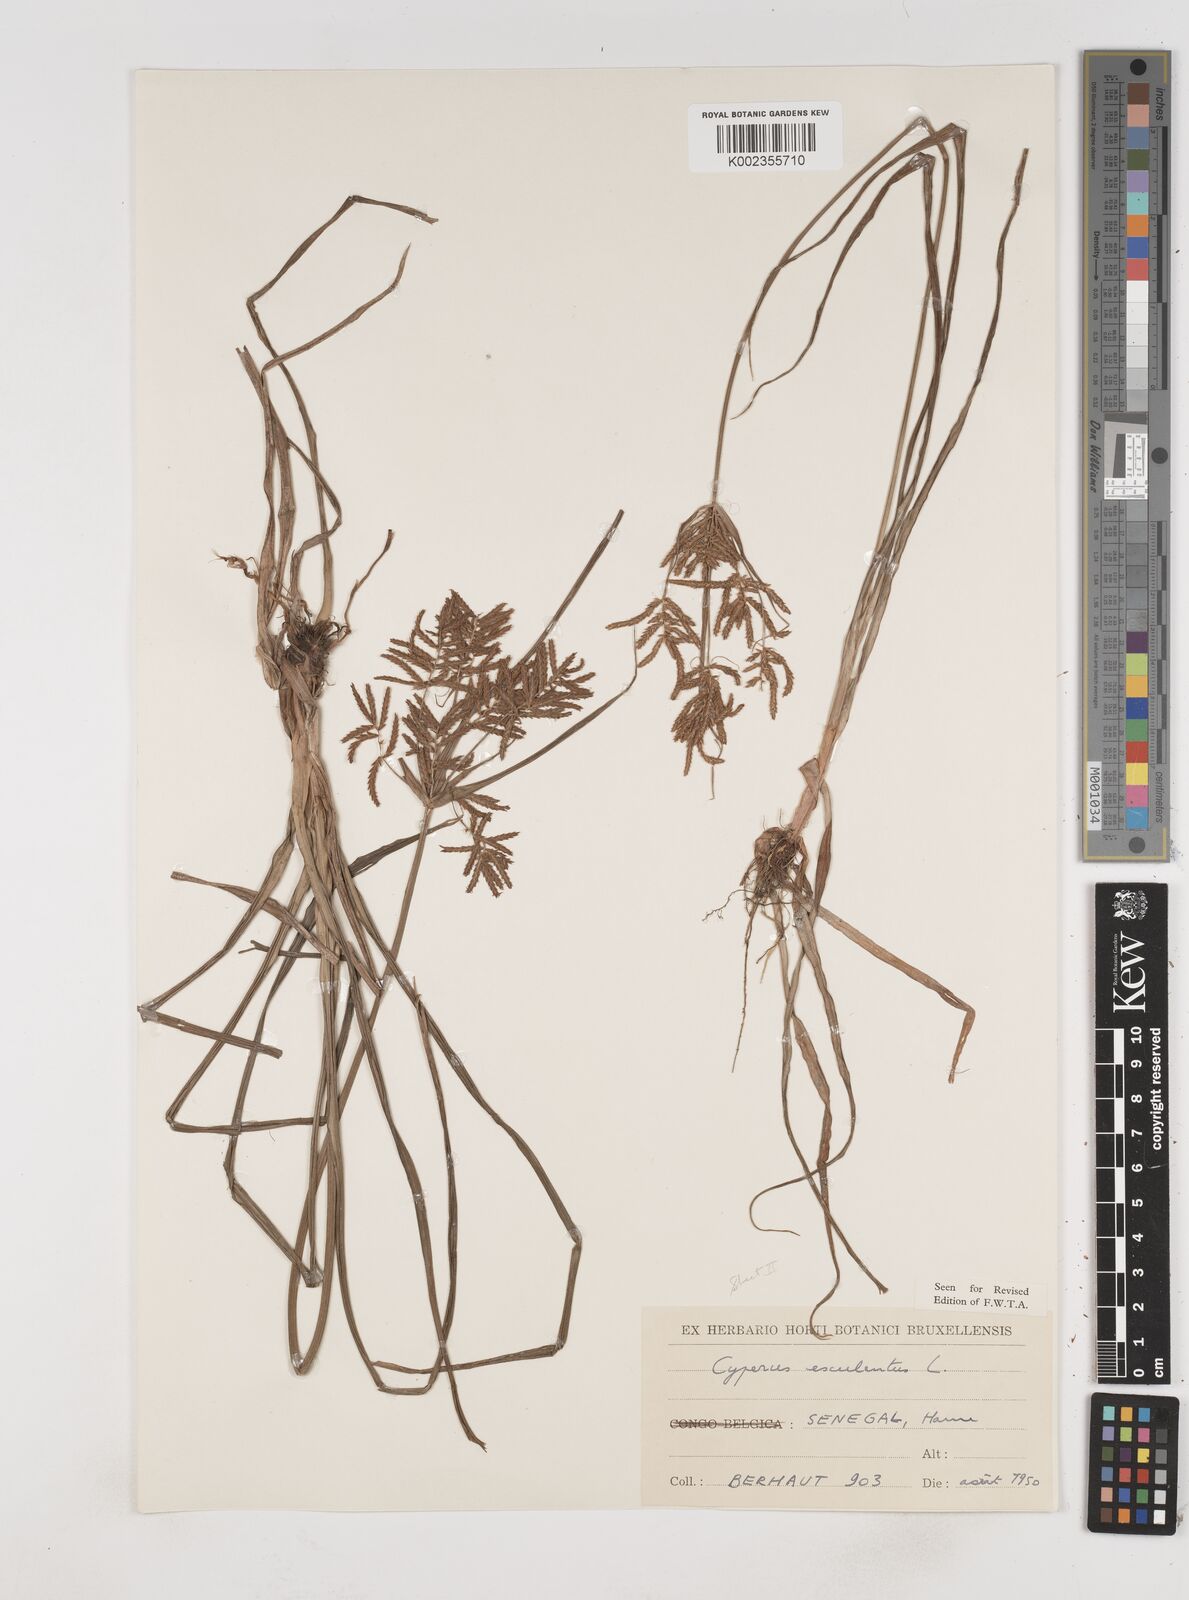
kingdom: Plantae
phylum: Tracheophyta
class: Liliopsida
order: Poales
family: Cyperaceae
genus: Cyperus
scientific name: Cyperus esculentus
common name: Yellow nutsedge
